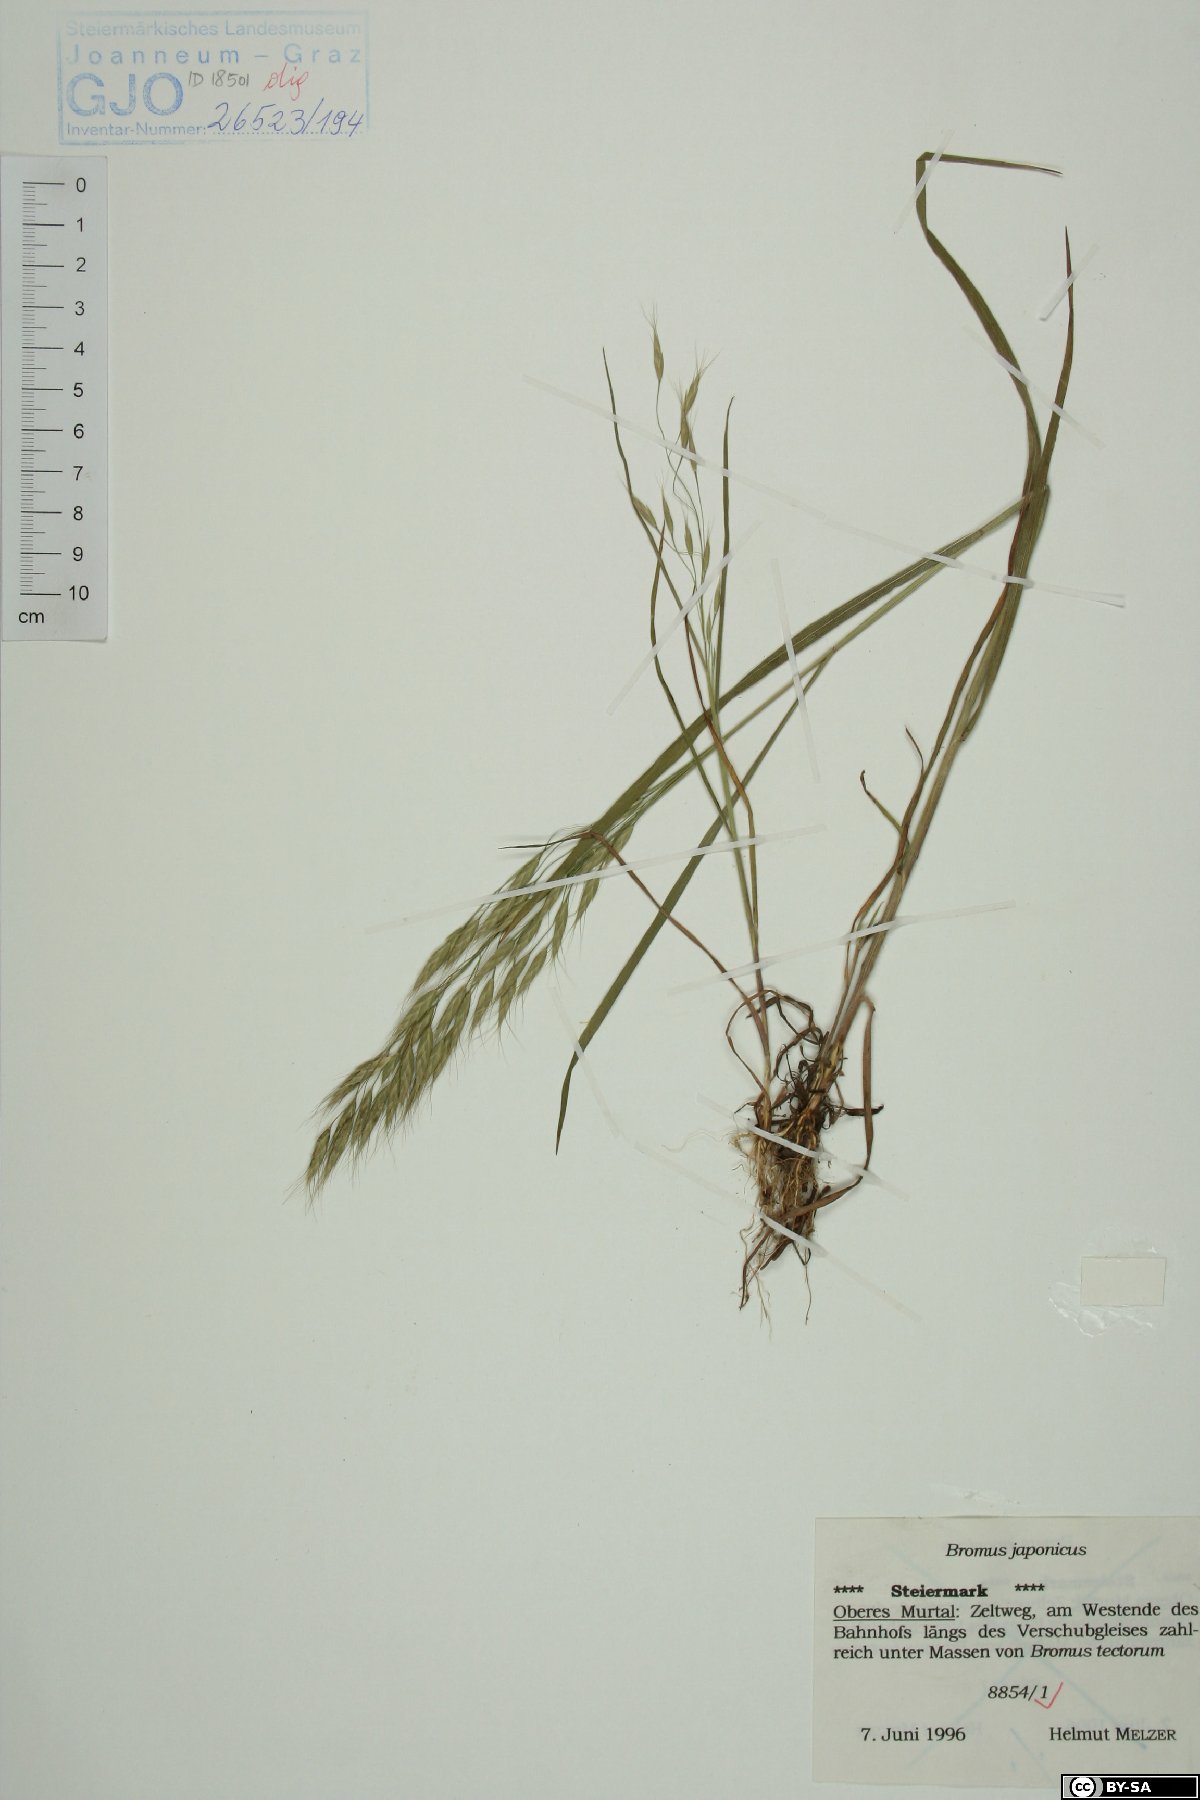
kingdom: Plantae
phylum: Tracheophyta
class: Liliopsida
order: Poales
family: Poaceae
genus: Bromus
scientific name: Bromus japonicus
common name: Japanese brome
